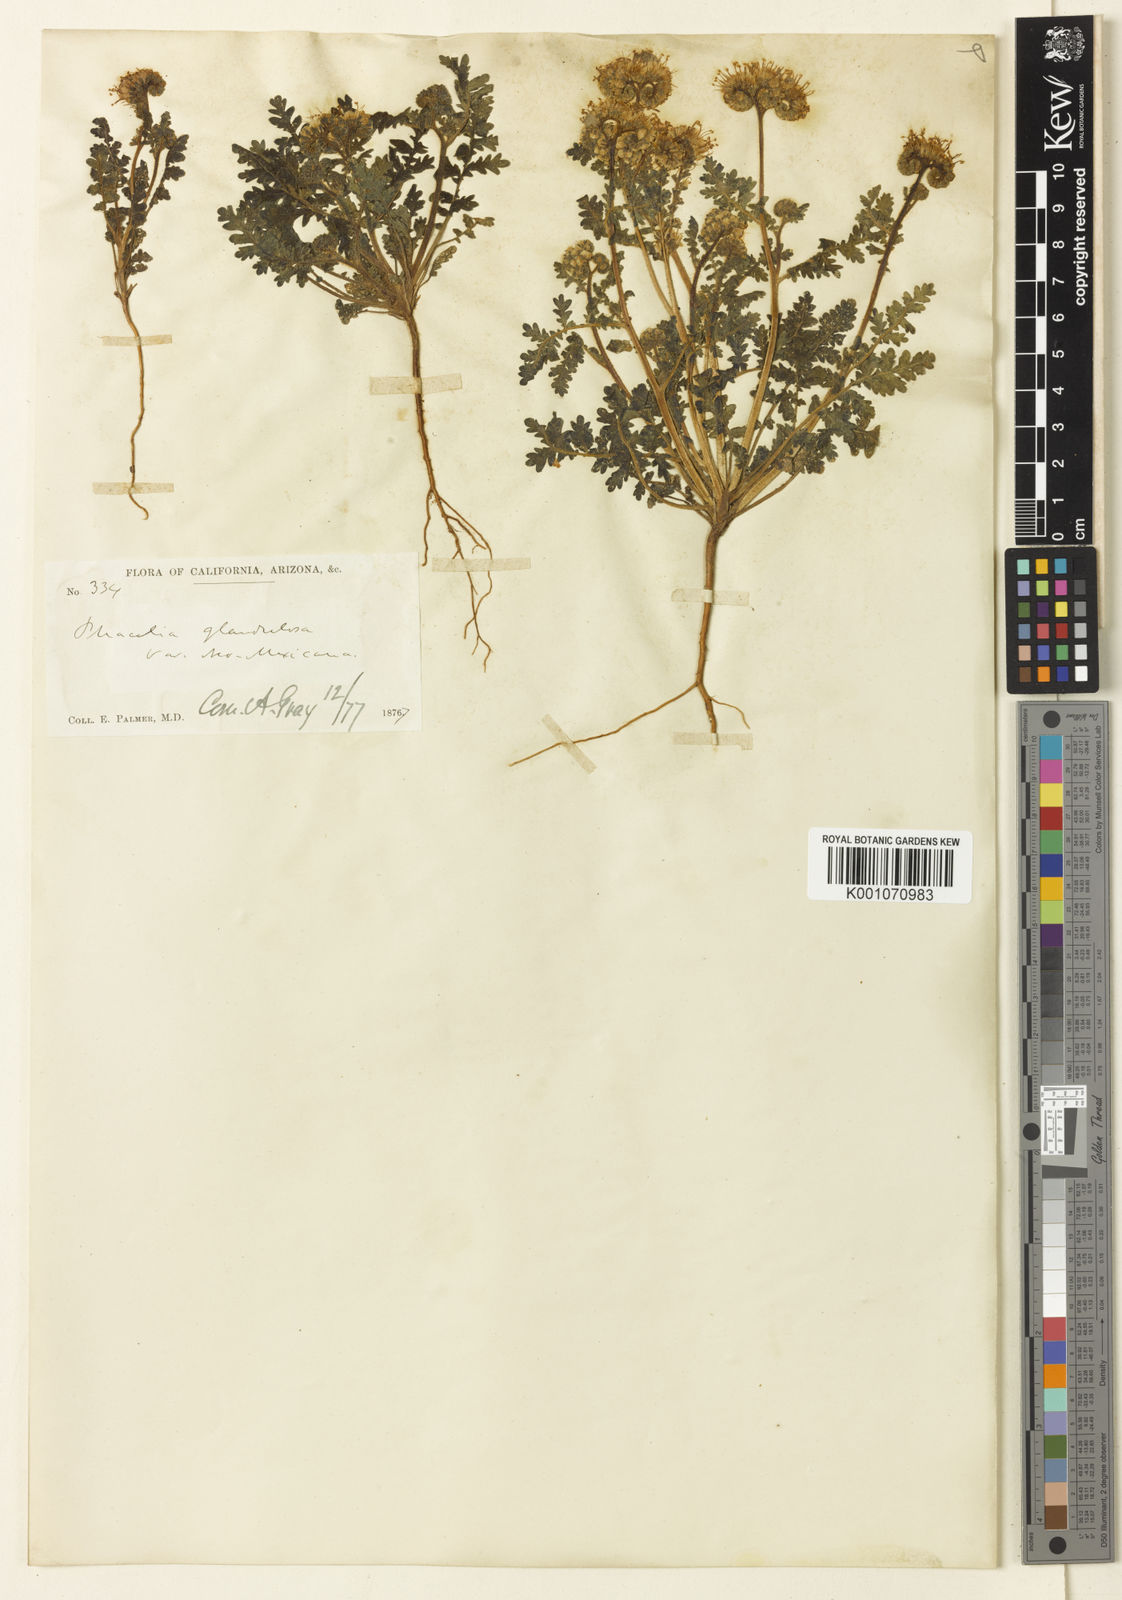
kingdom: Plantae
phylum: Tracheophyta
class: Magnoliopsida
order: Boraginales
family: Hydrophyllaceae
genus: Phacelia
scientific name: Phacelia neomexicana
